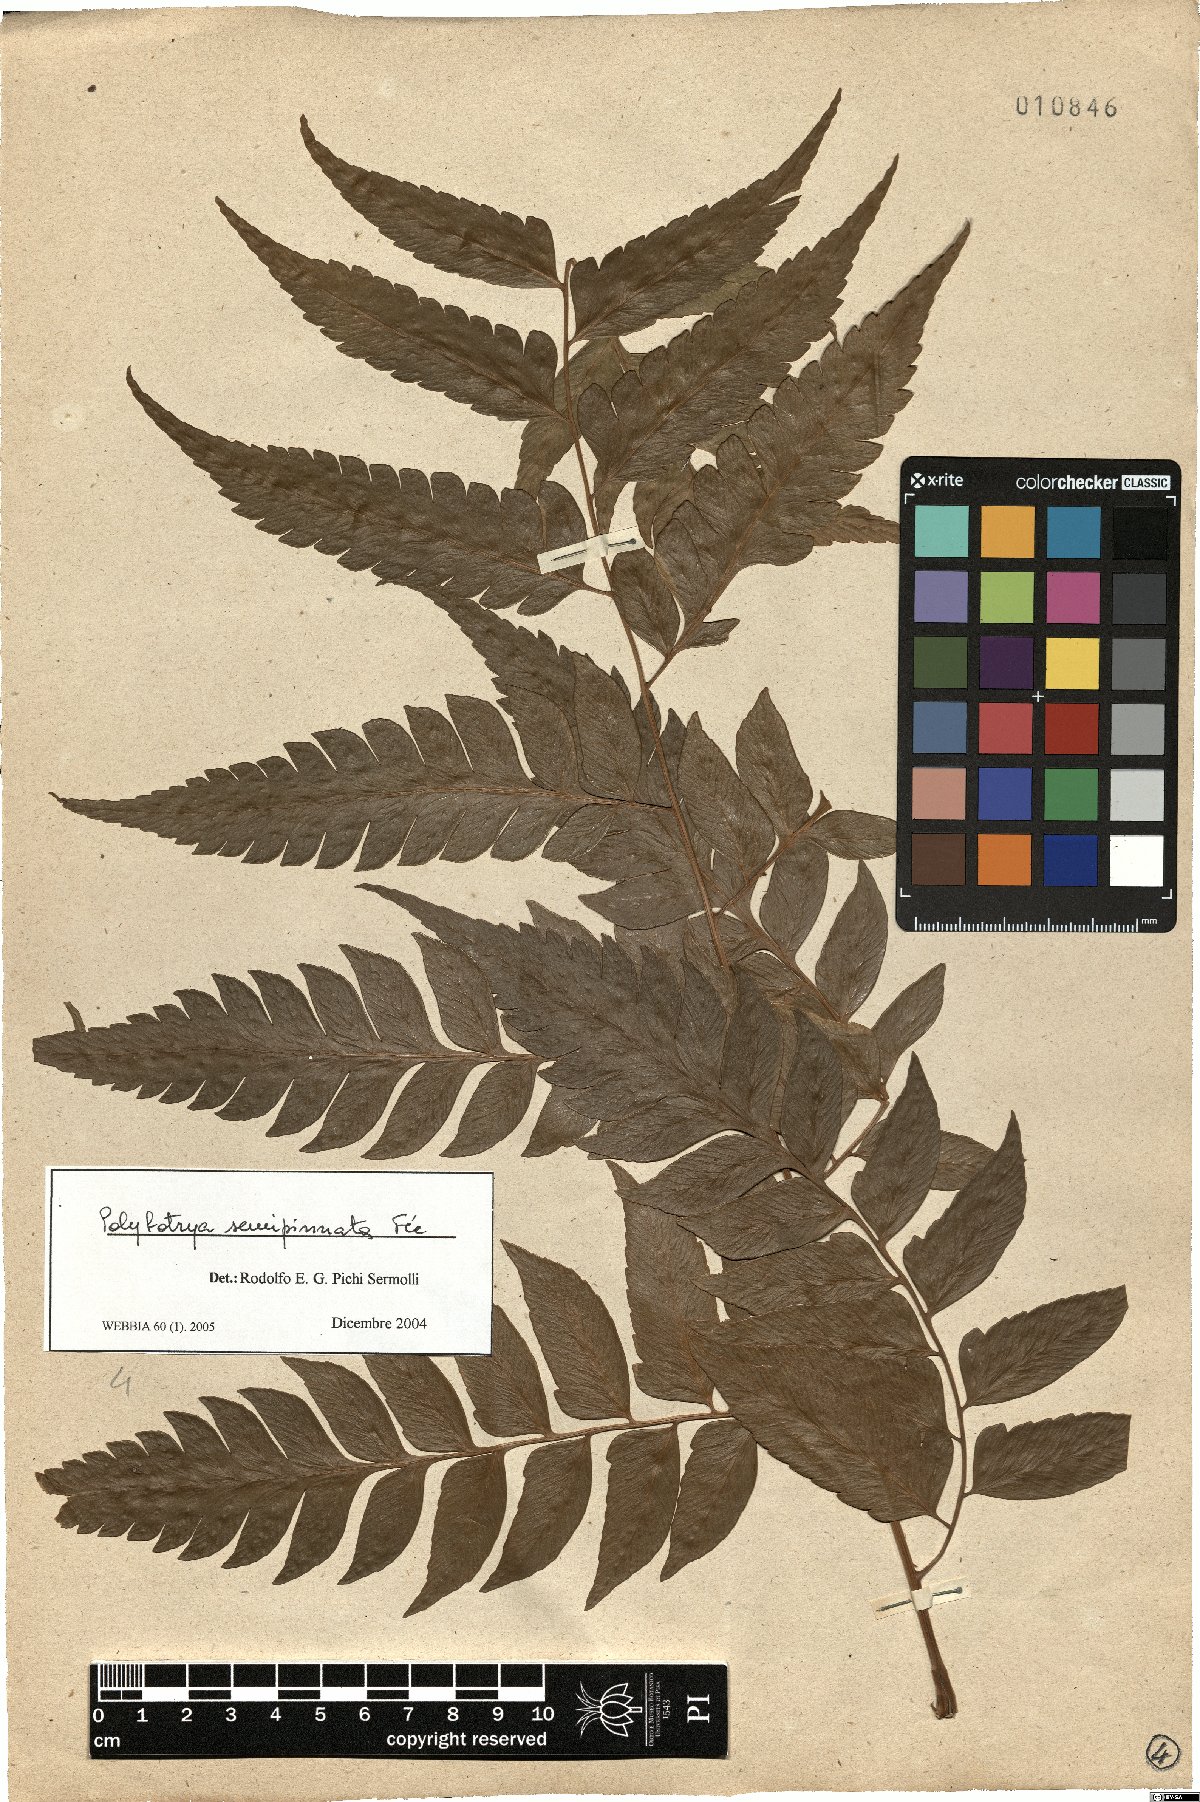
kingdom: Plantae
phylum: Tracheophyta
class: Polypodiopsida
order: Polypodiales
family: Dryopteridaceae
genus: Polybotrya
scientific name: Polybotrya semipinnata
